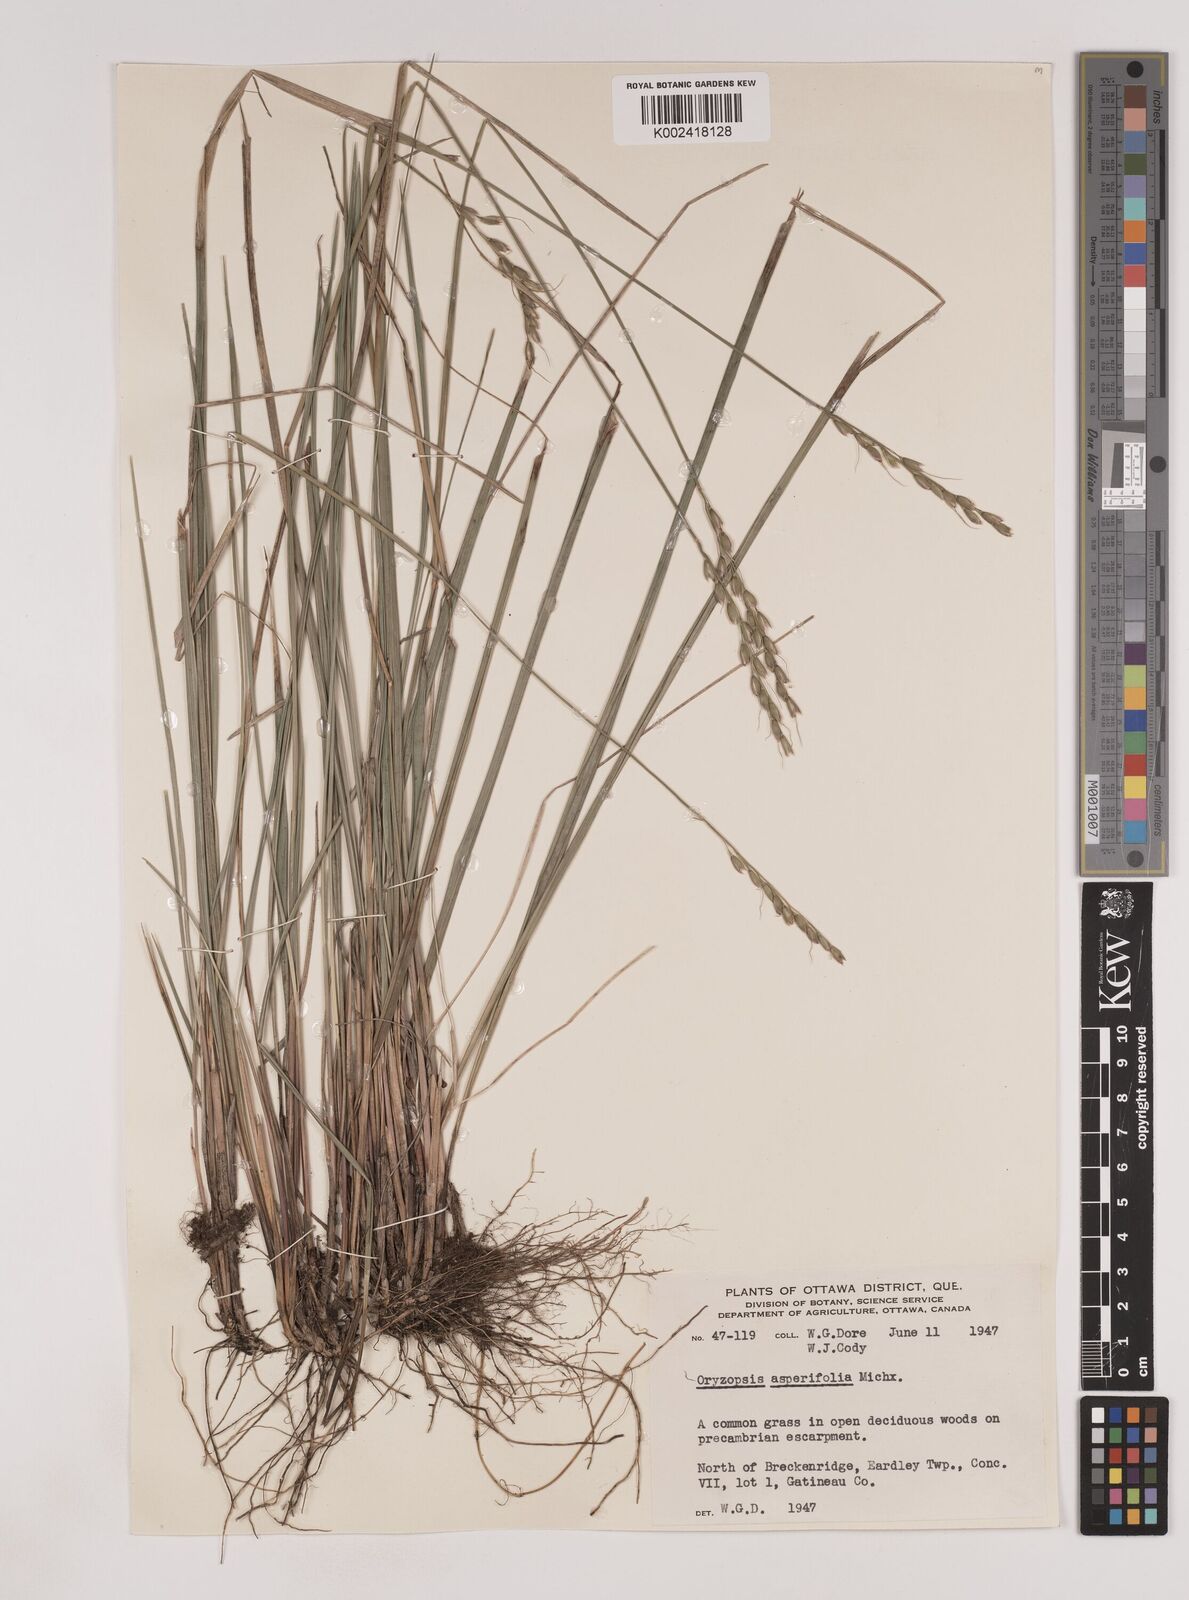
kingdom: Plantae
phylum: Tracheophyta
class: Liliopsida
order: Poales
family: Poaceae
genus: Oryzopsis
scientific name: Oryzopsis asperifolia
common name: Rough-leaved mountain rice
